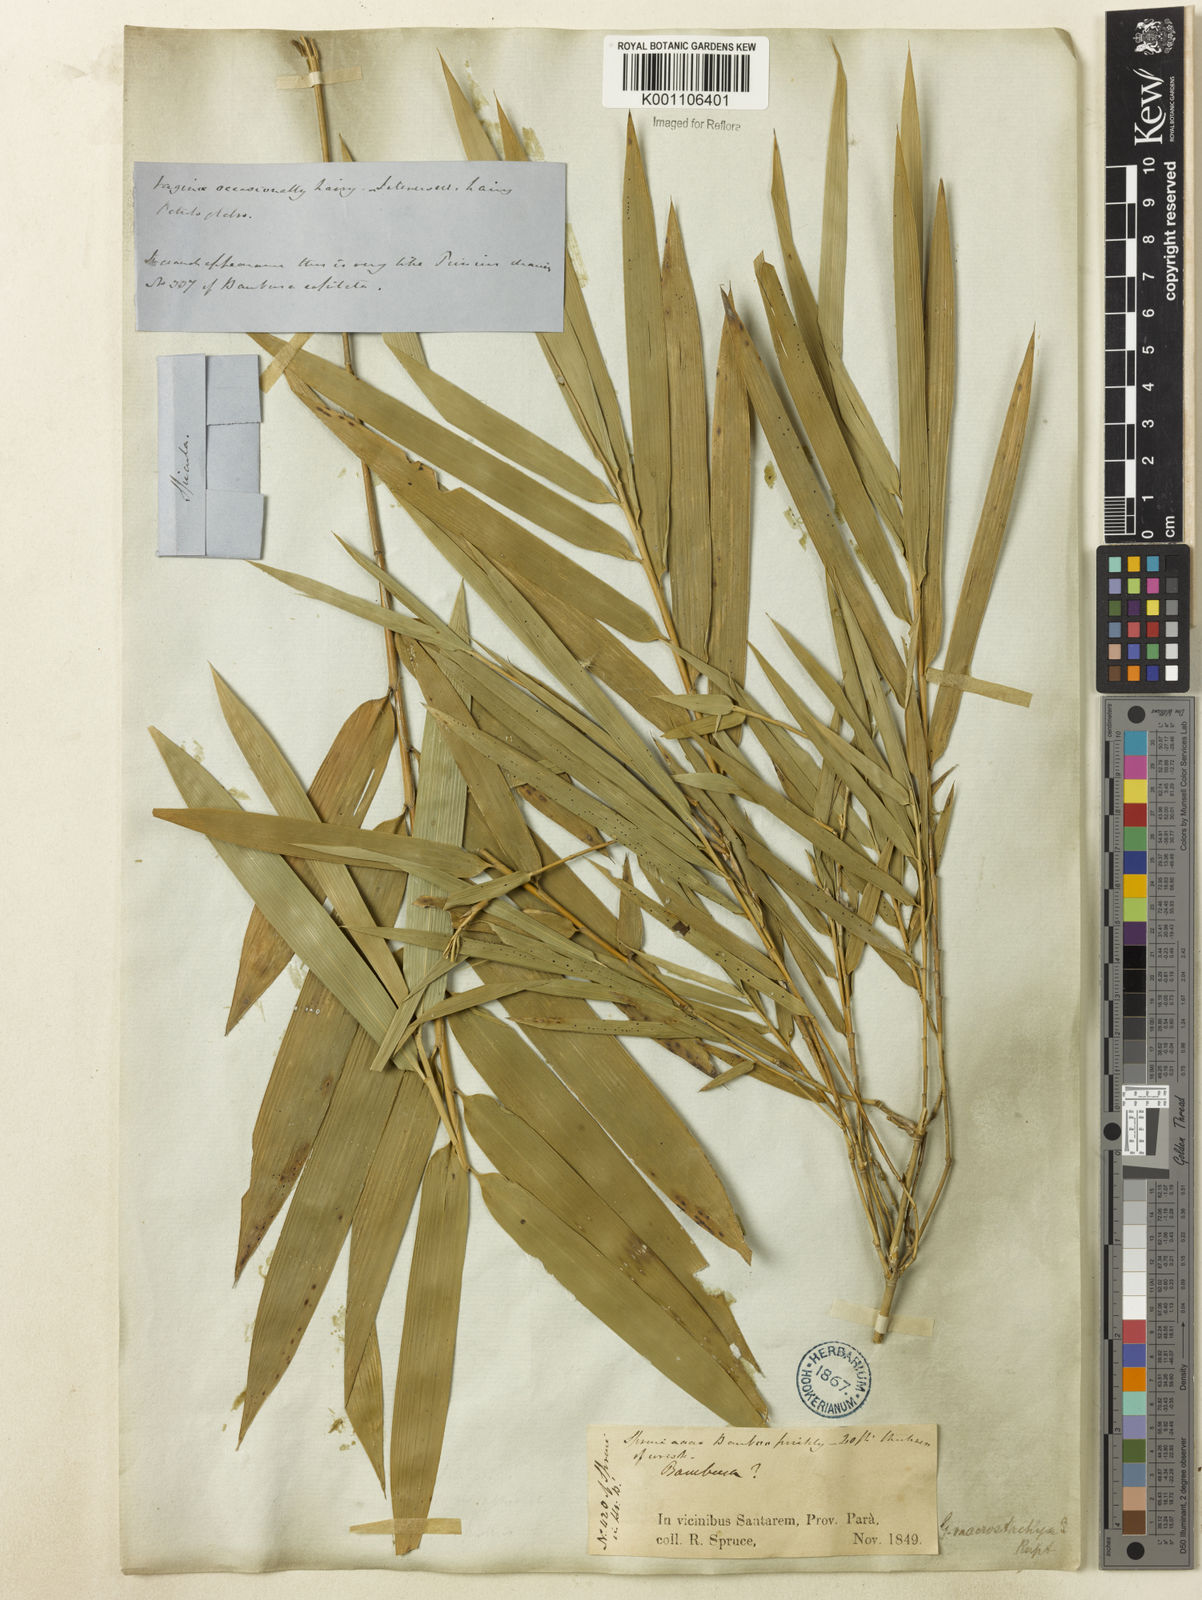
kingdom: Plantae
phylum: Tracheophyta
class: Liliopsida
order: Poales
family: Poaceae
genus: Guadua
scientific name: Guadua
